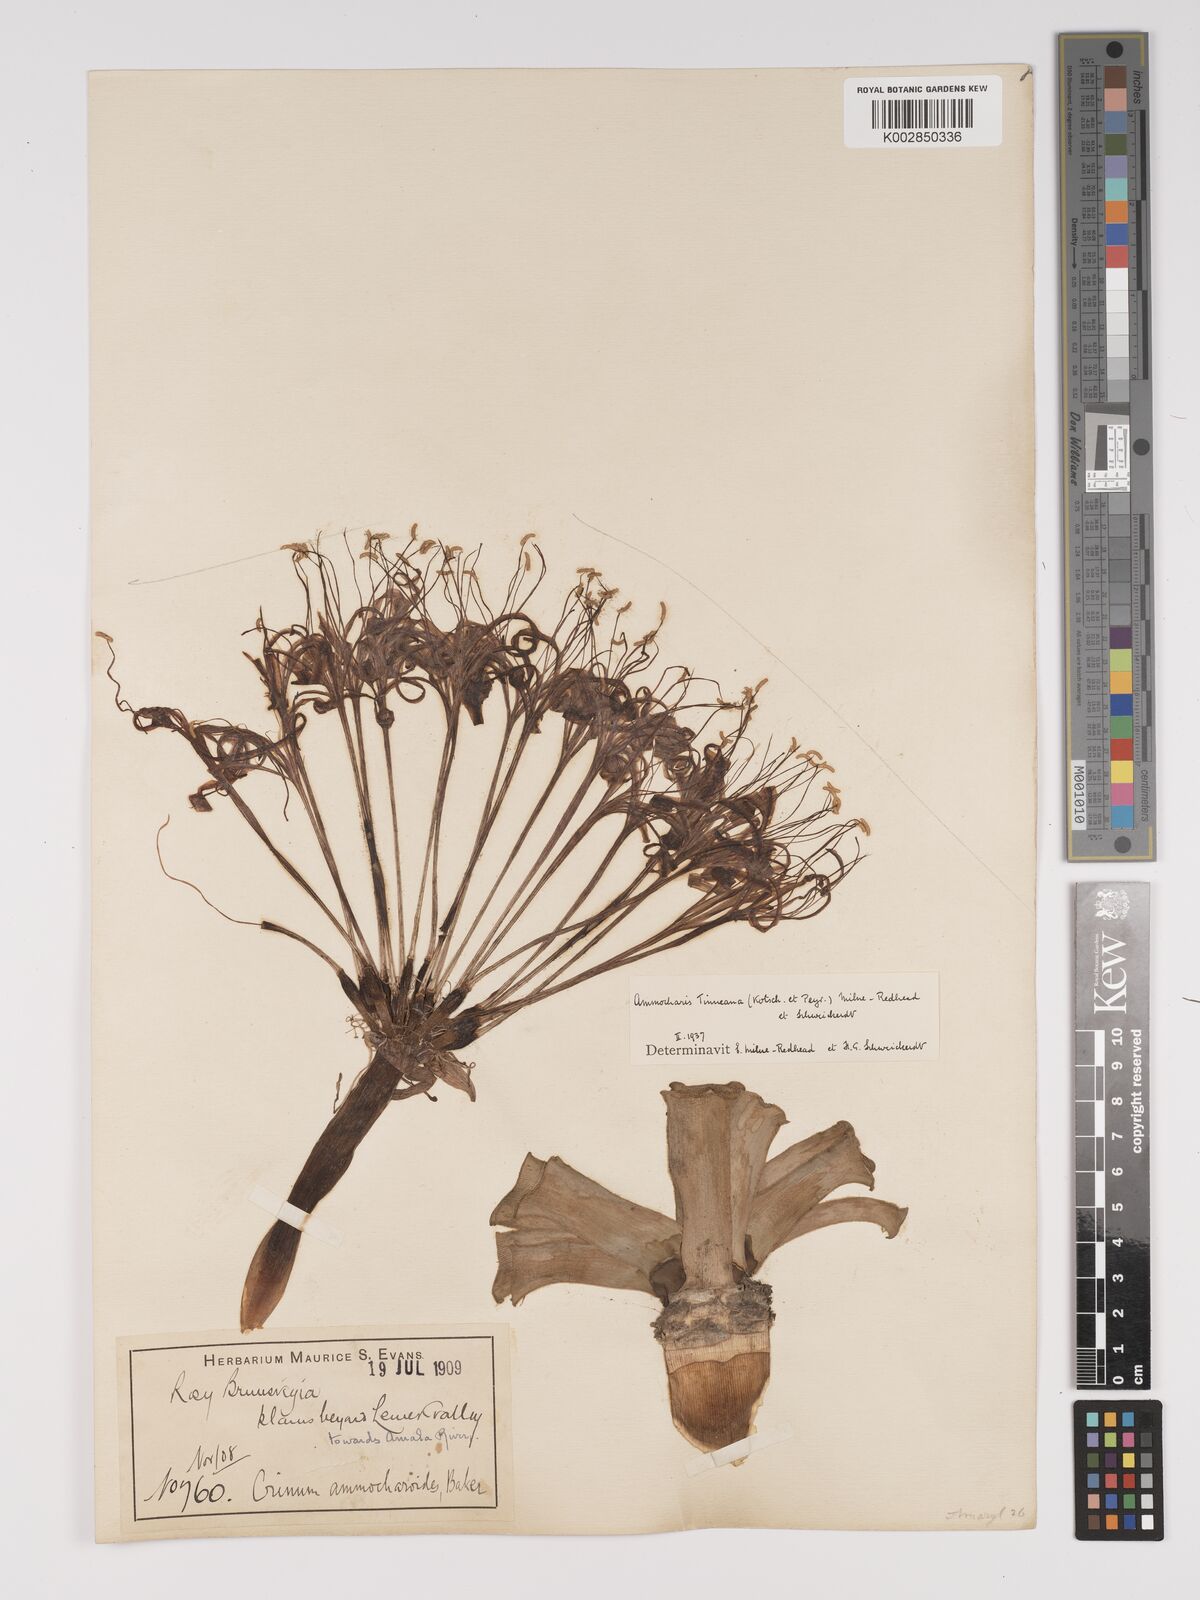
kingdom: Plantae
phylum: Tracheophyta
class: Liliopsida
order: Asparagales
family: Amaryllidaceae
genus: Ammocharis
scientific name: Ammocharis tinneana
